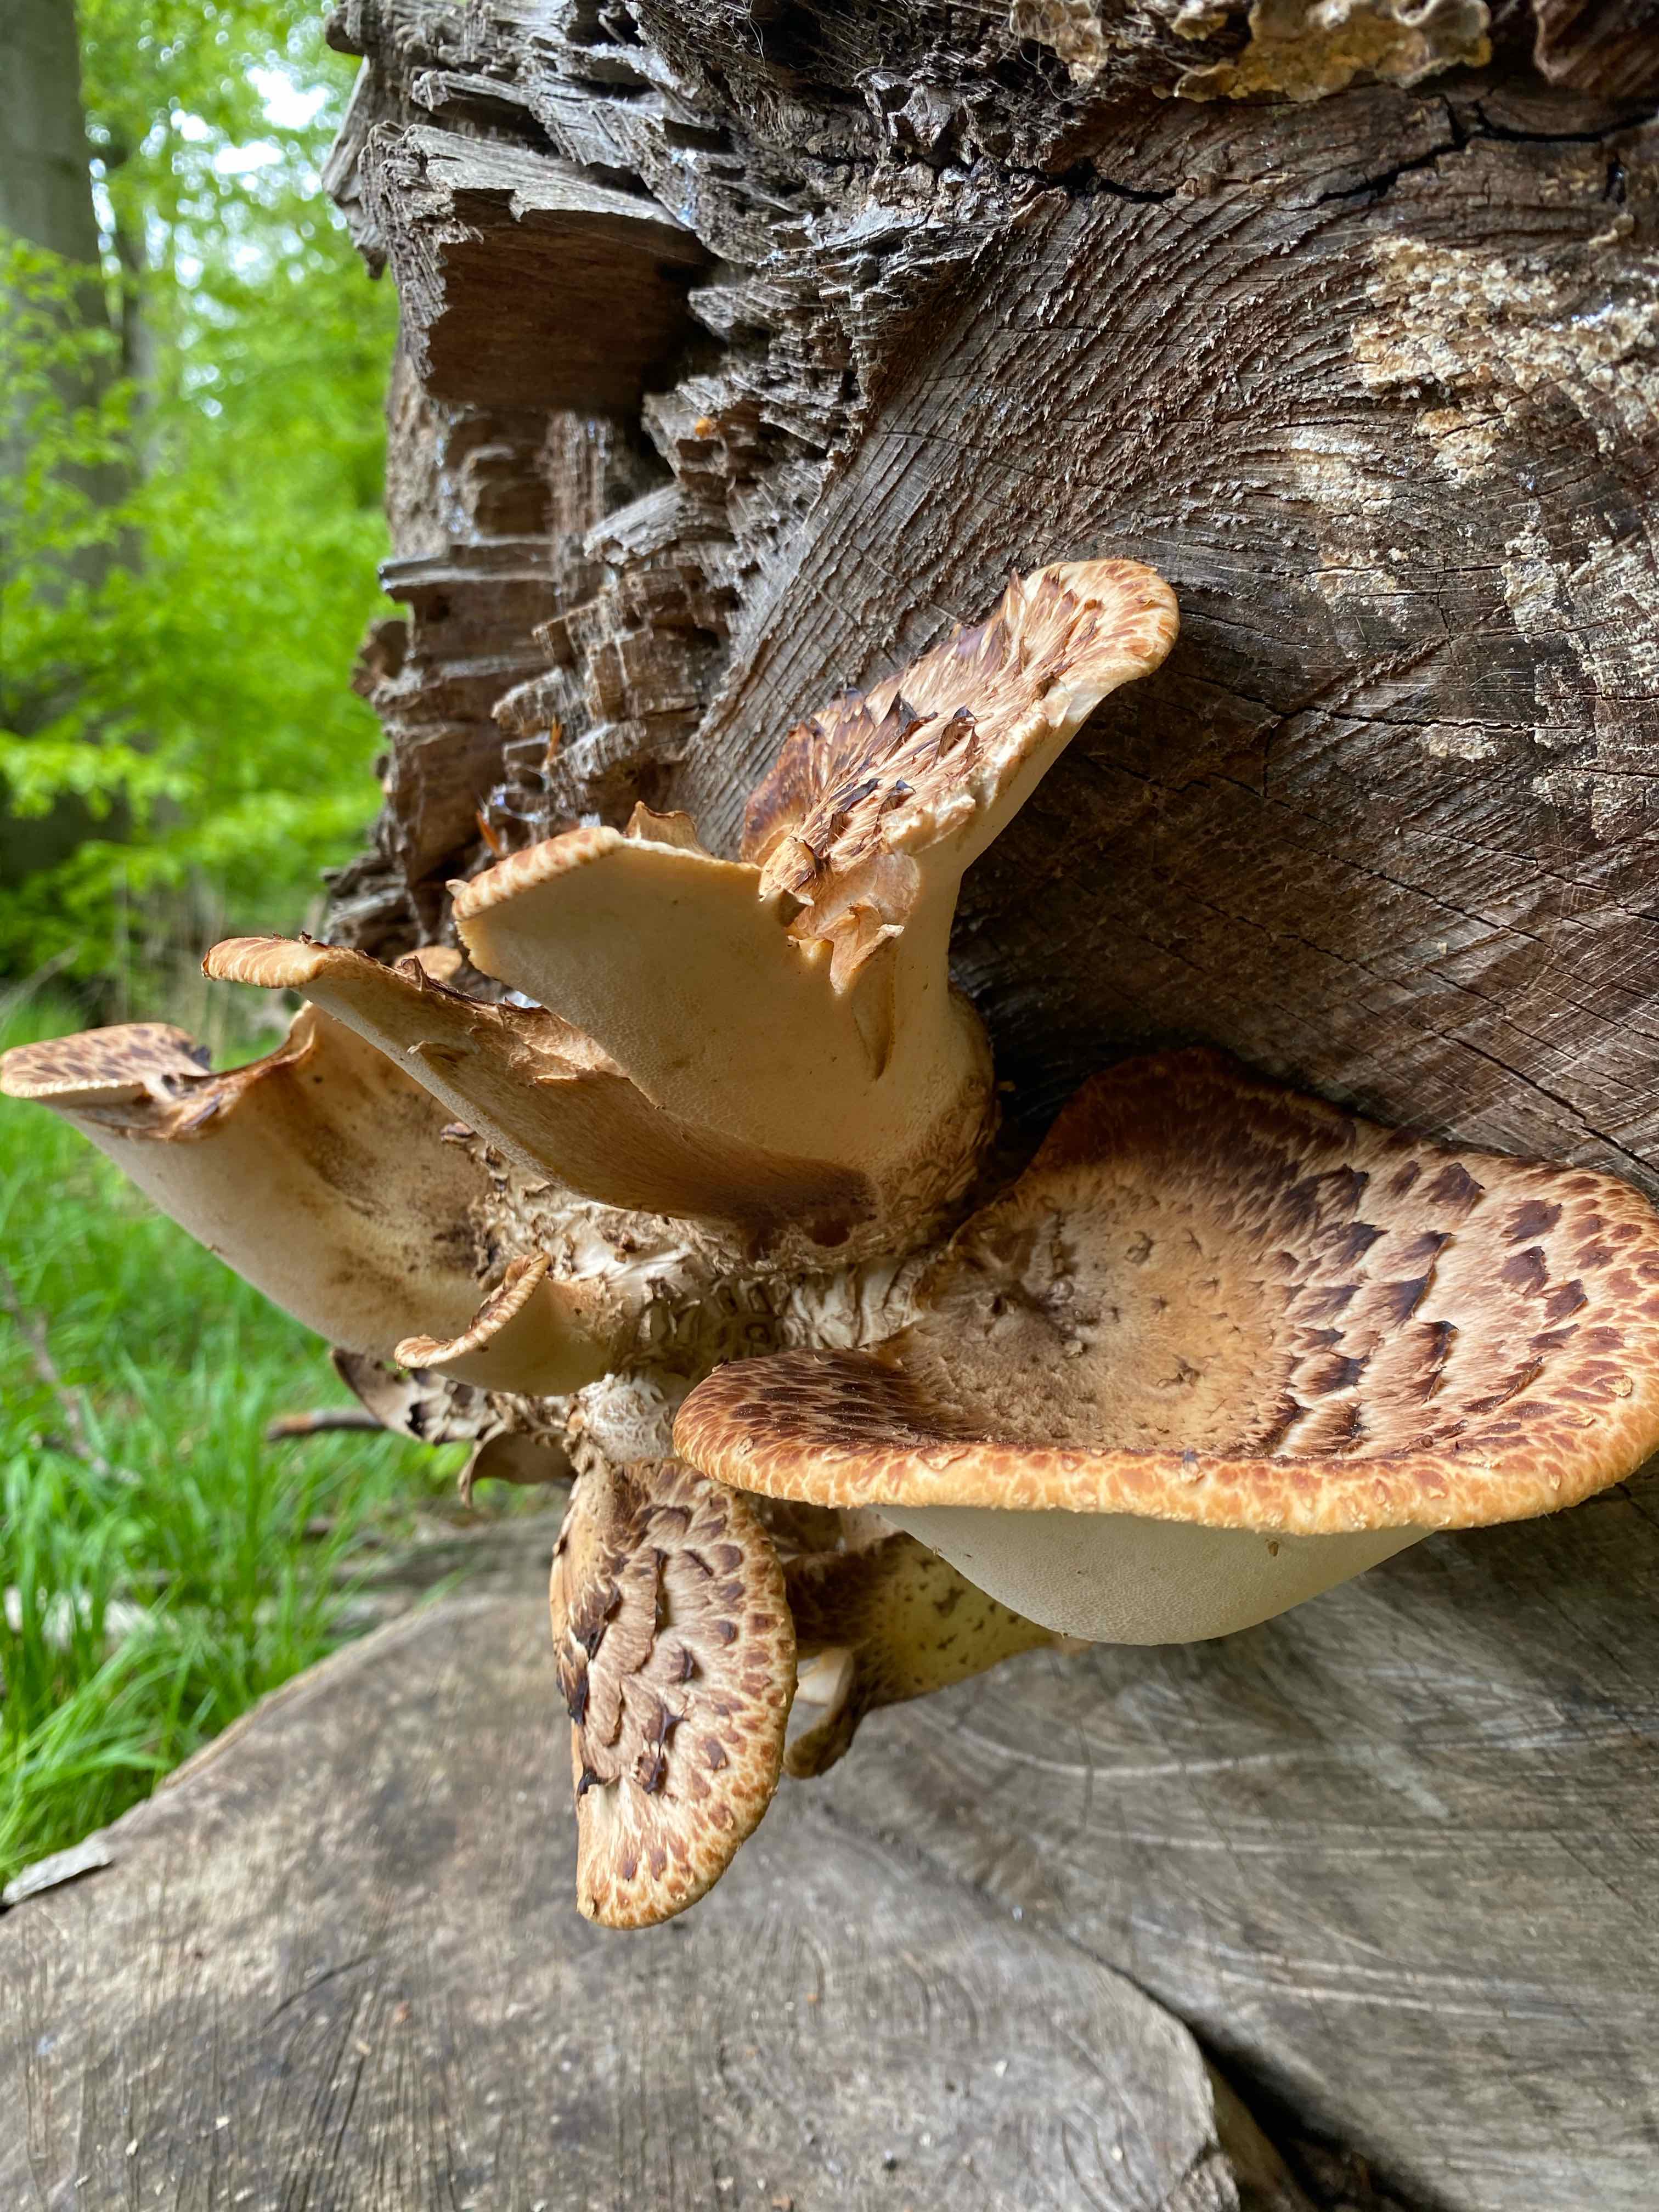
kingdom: Fungi
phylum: Basidiomycota
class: Agaricomycetes
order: Polyporales
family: Polyporaceae
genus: Cerioporus
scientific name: Cerioporus squamosus
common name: skællet stilkporesvamp
